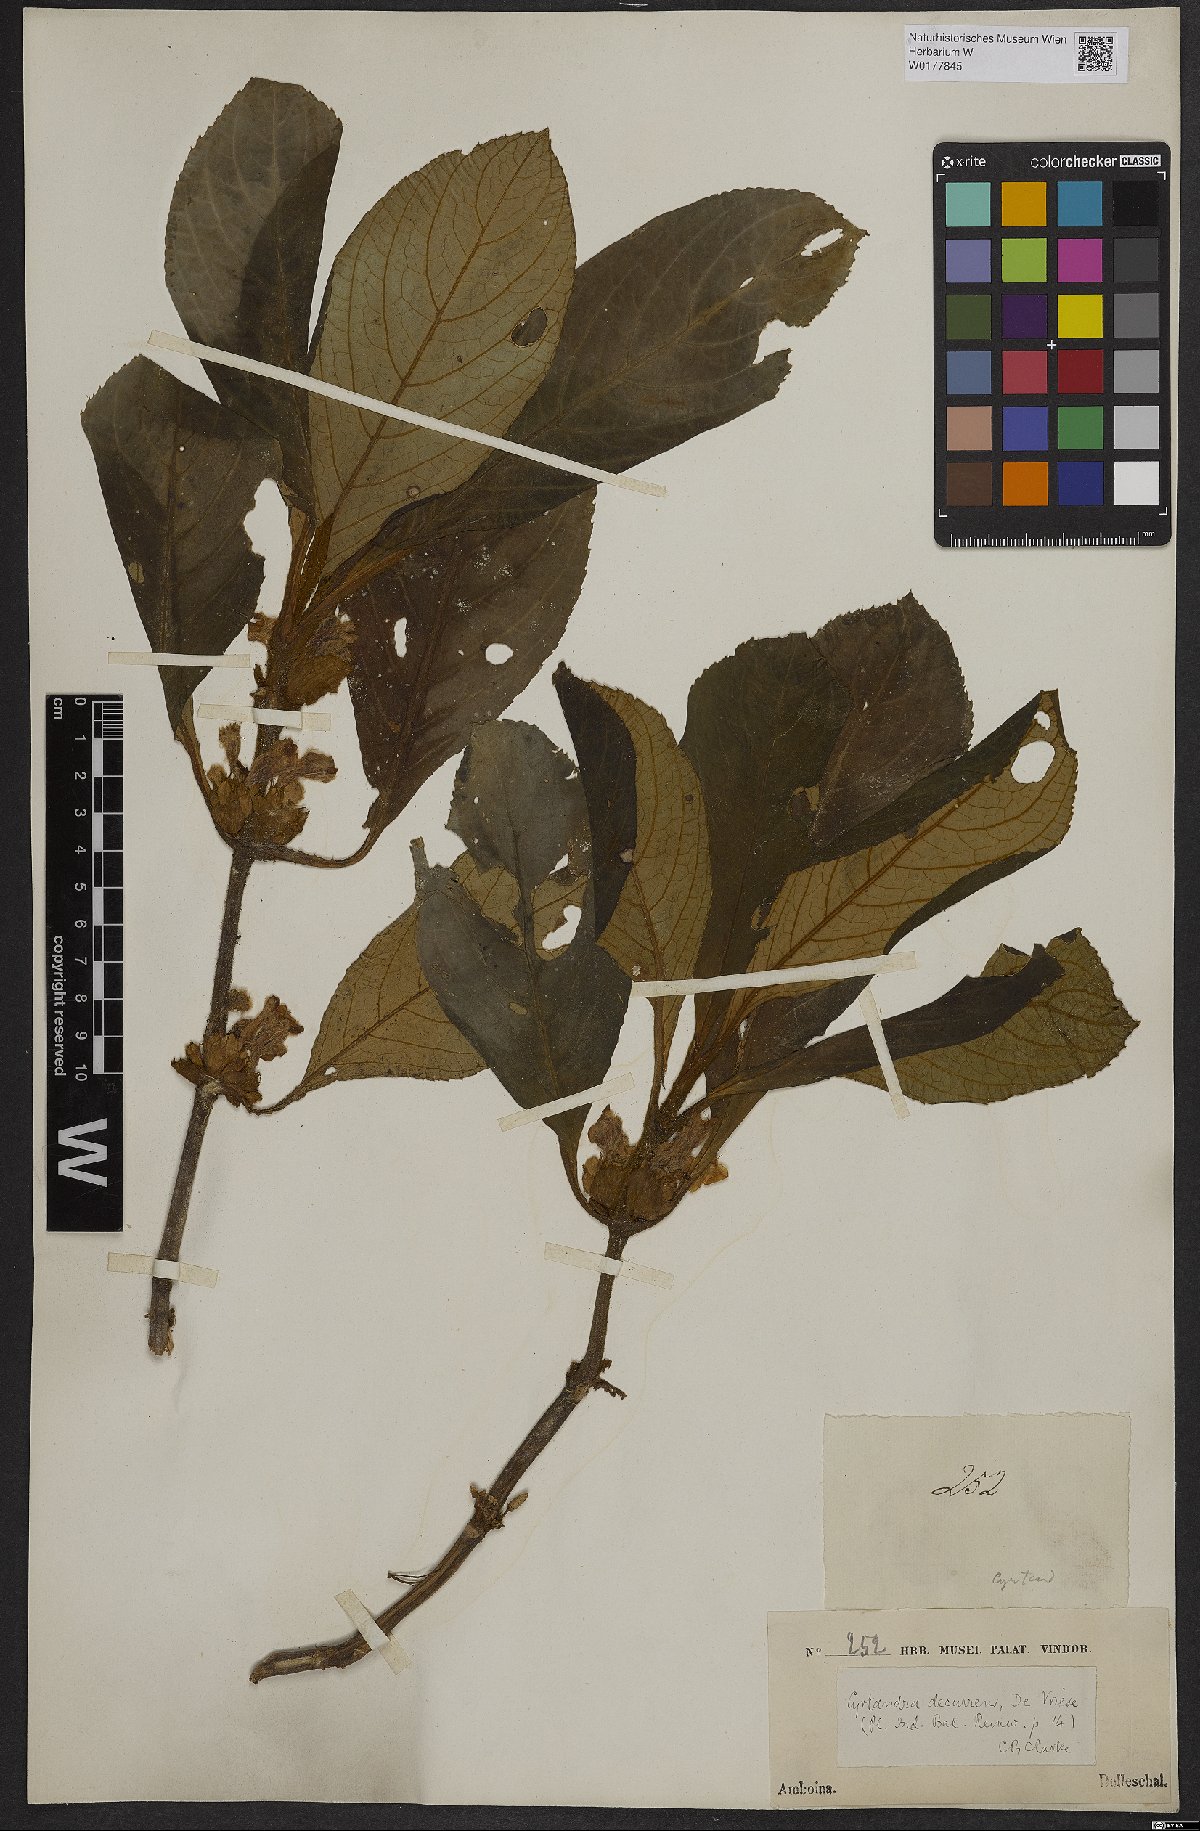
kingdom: Plantae
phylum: Tracheophyta
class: Magnoliopsida
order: Lamiales
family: Gesneriaceae
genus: Cyrtandra
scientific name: Cyrtandra decurrens
